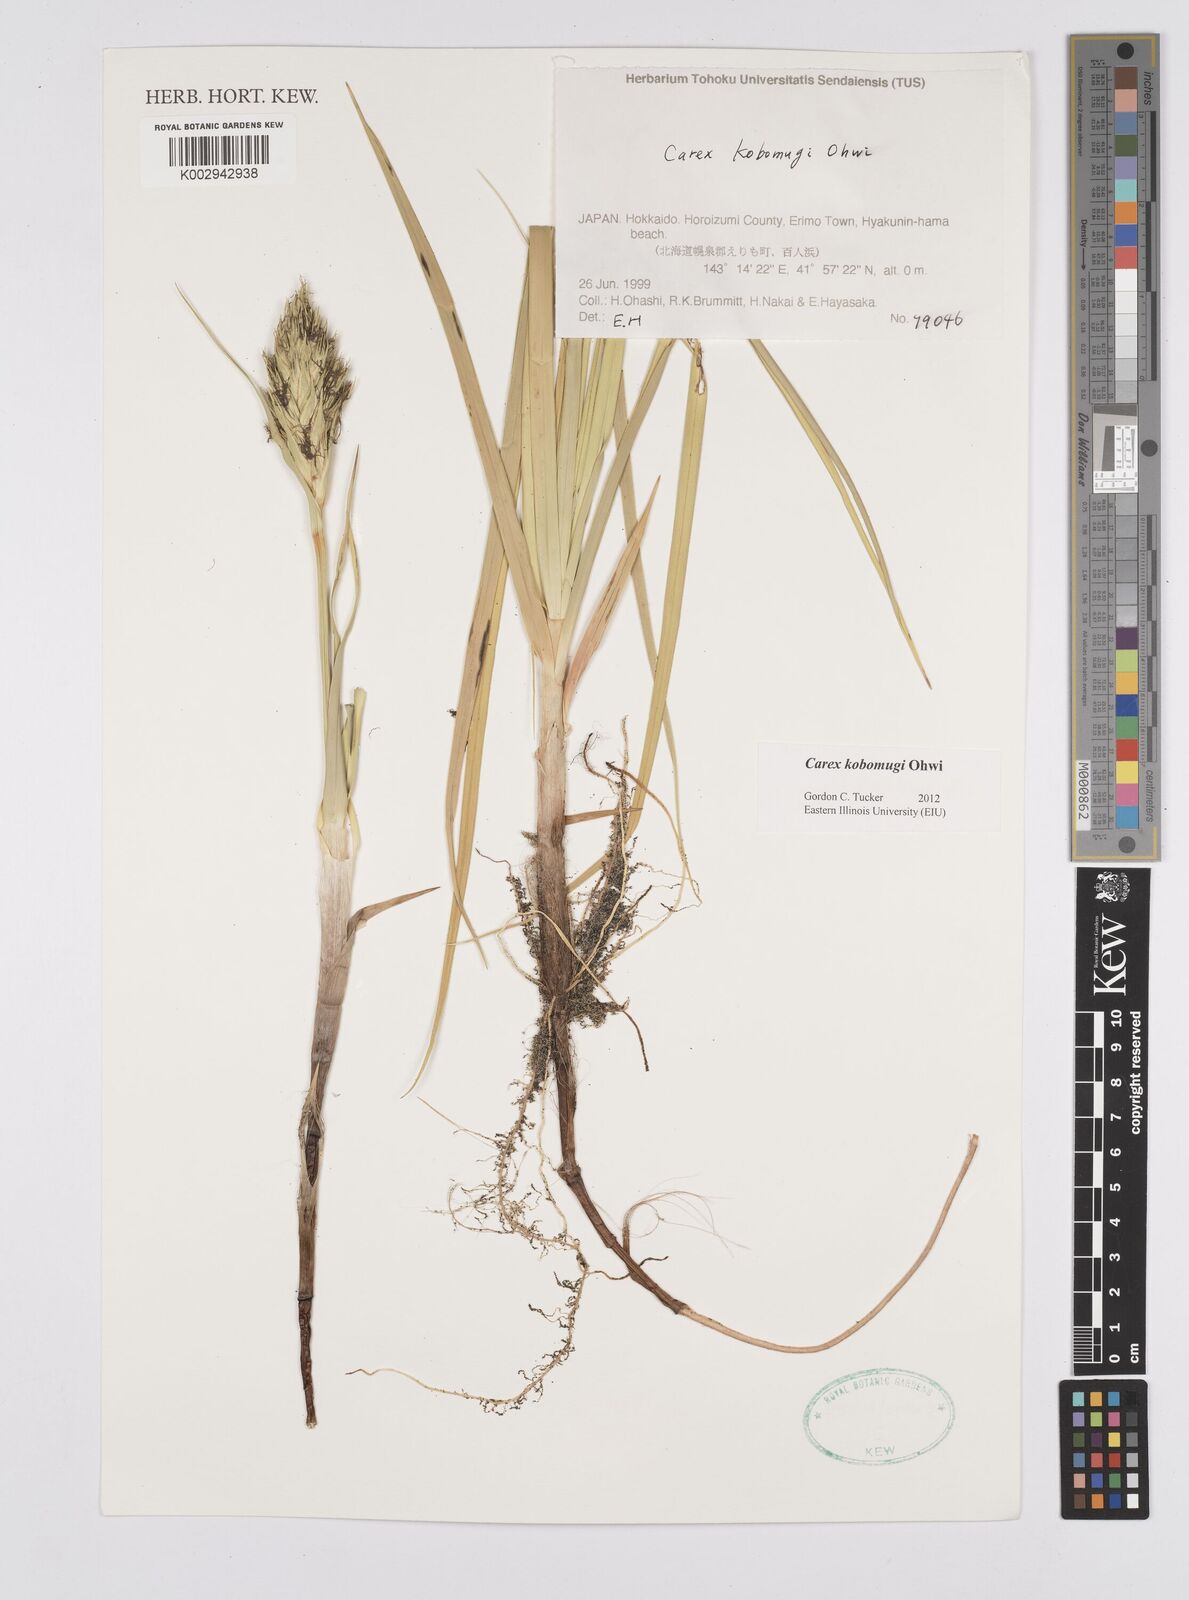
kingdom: Plantae
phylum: Tracheophyta
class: Liliopsida
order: Poales
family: Cyperaceae
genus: Carex
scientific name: Carex kobomugi
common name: Japanese sedge
